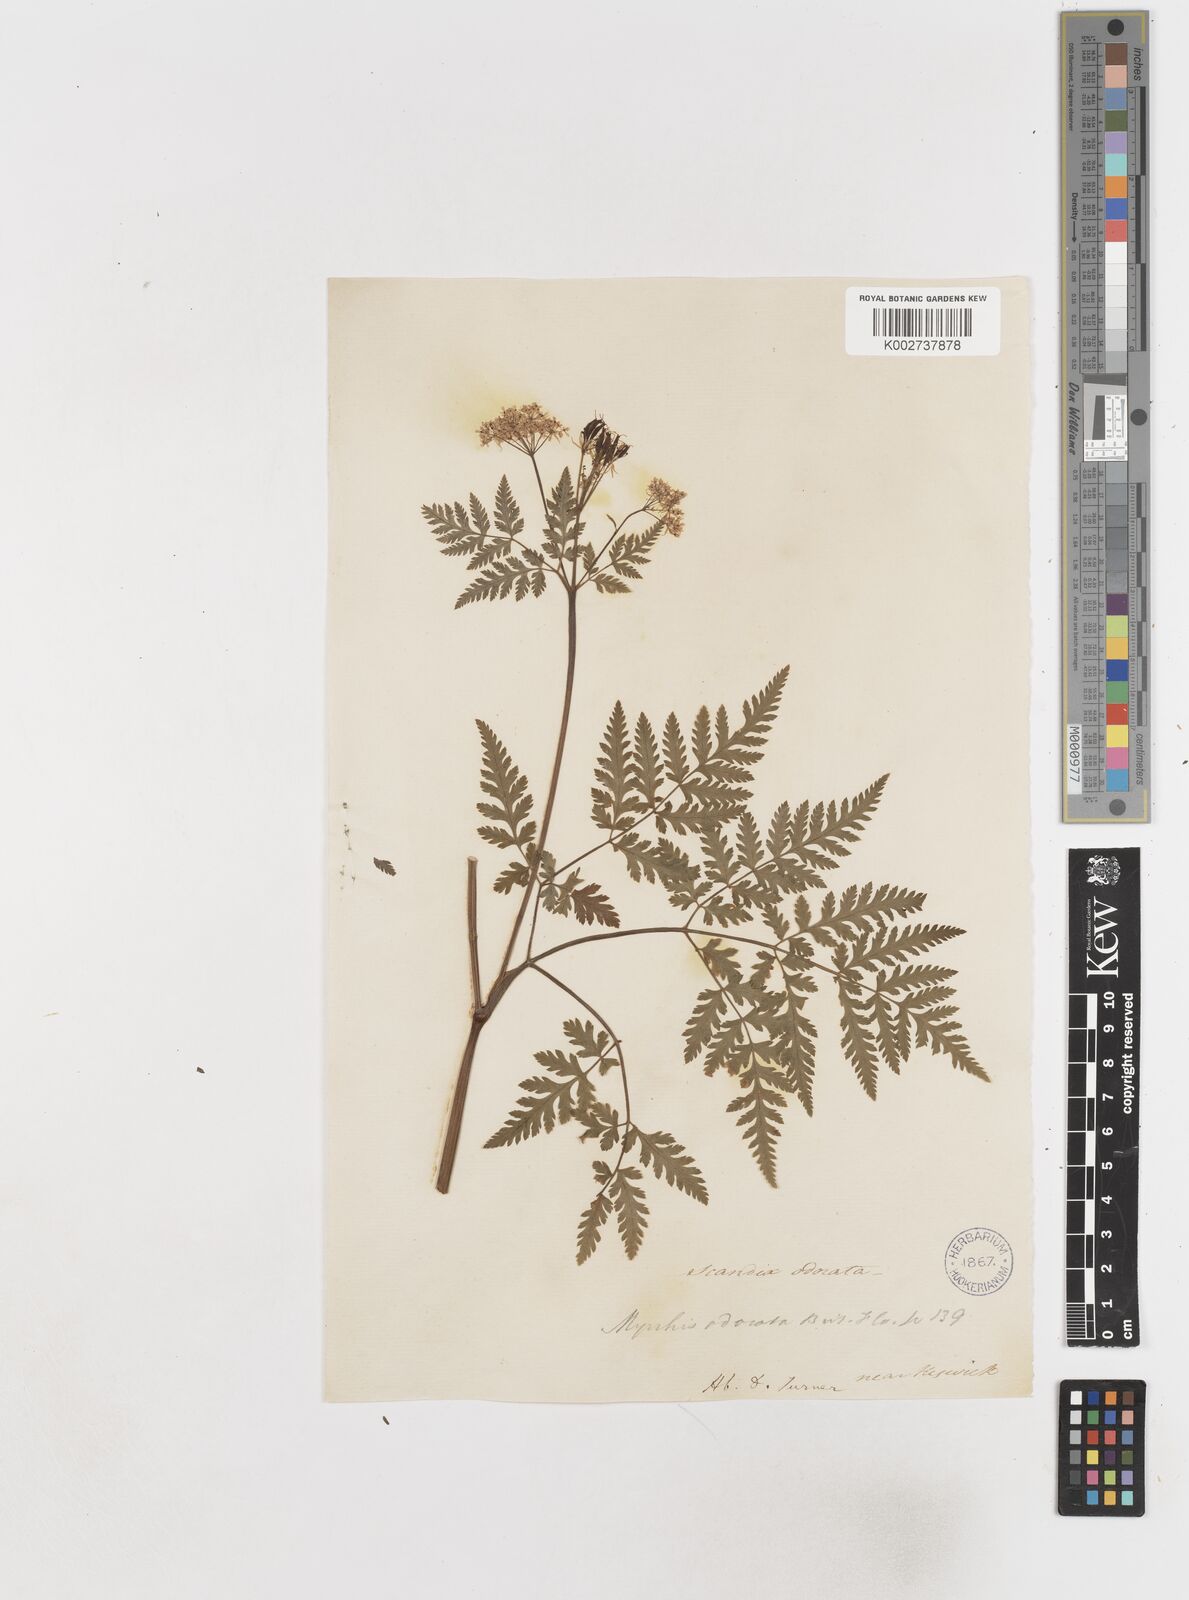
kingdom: Plantae
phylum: Tracheophyta
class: Magnoliopsida
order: Apiales
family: Apiaceae
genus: Myrrhis
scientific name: Myrrhis odorata
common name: Sweet cicely
